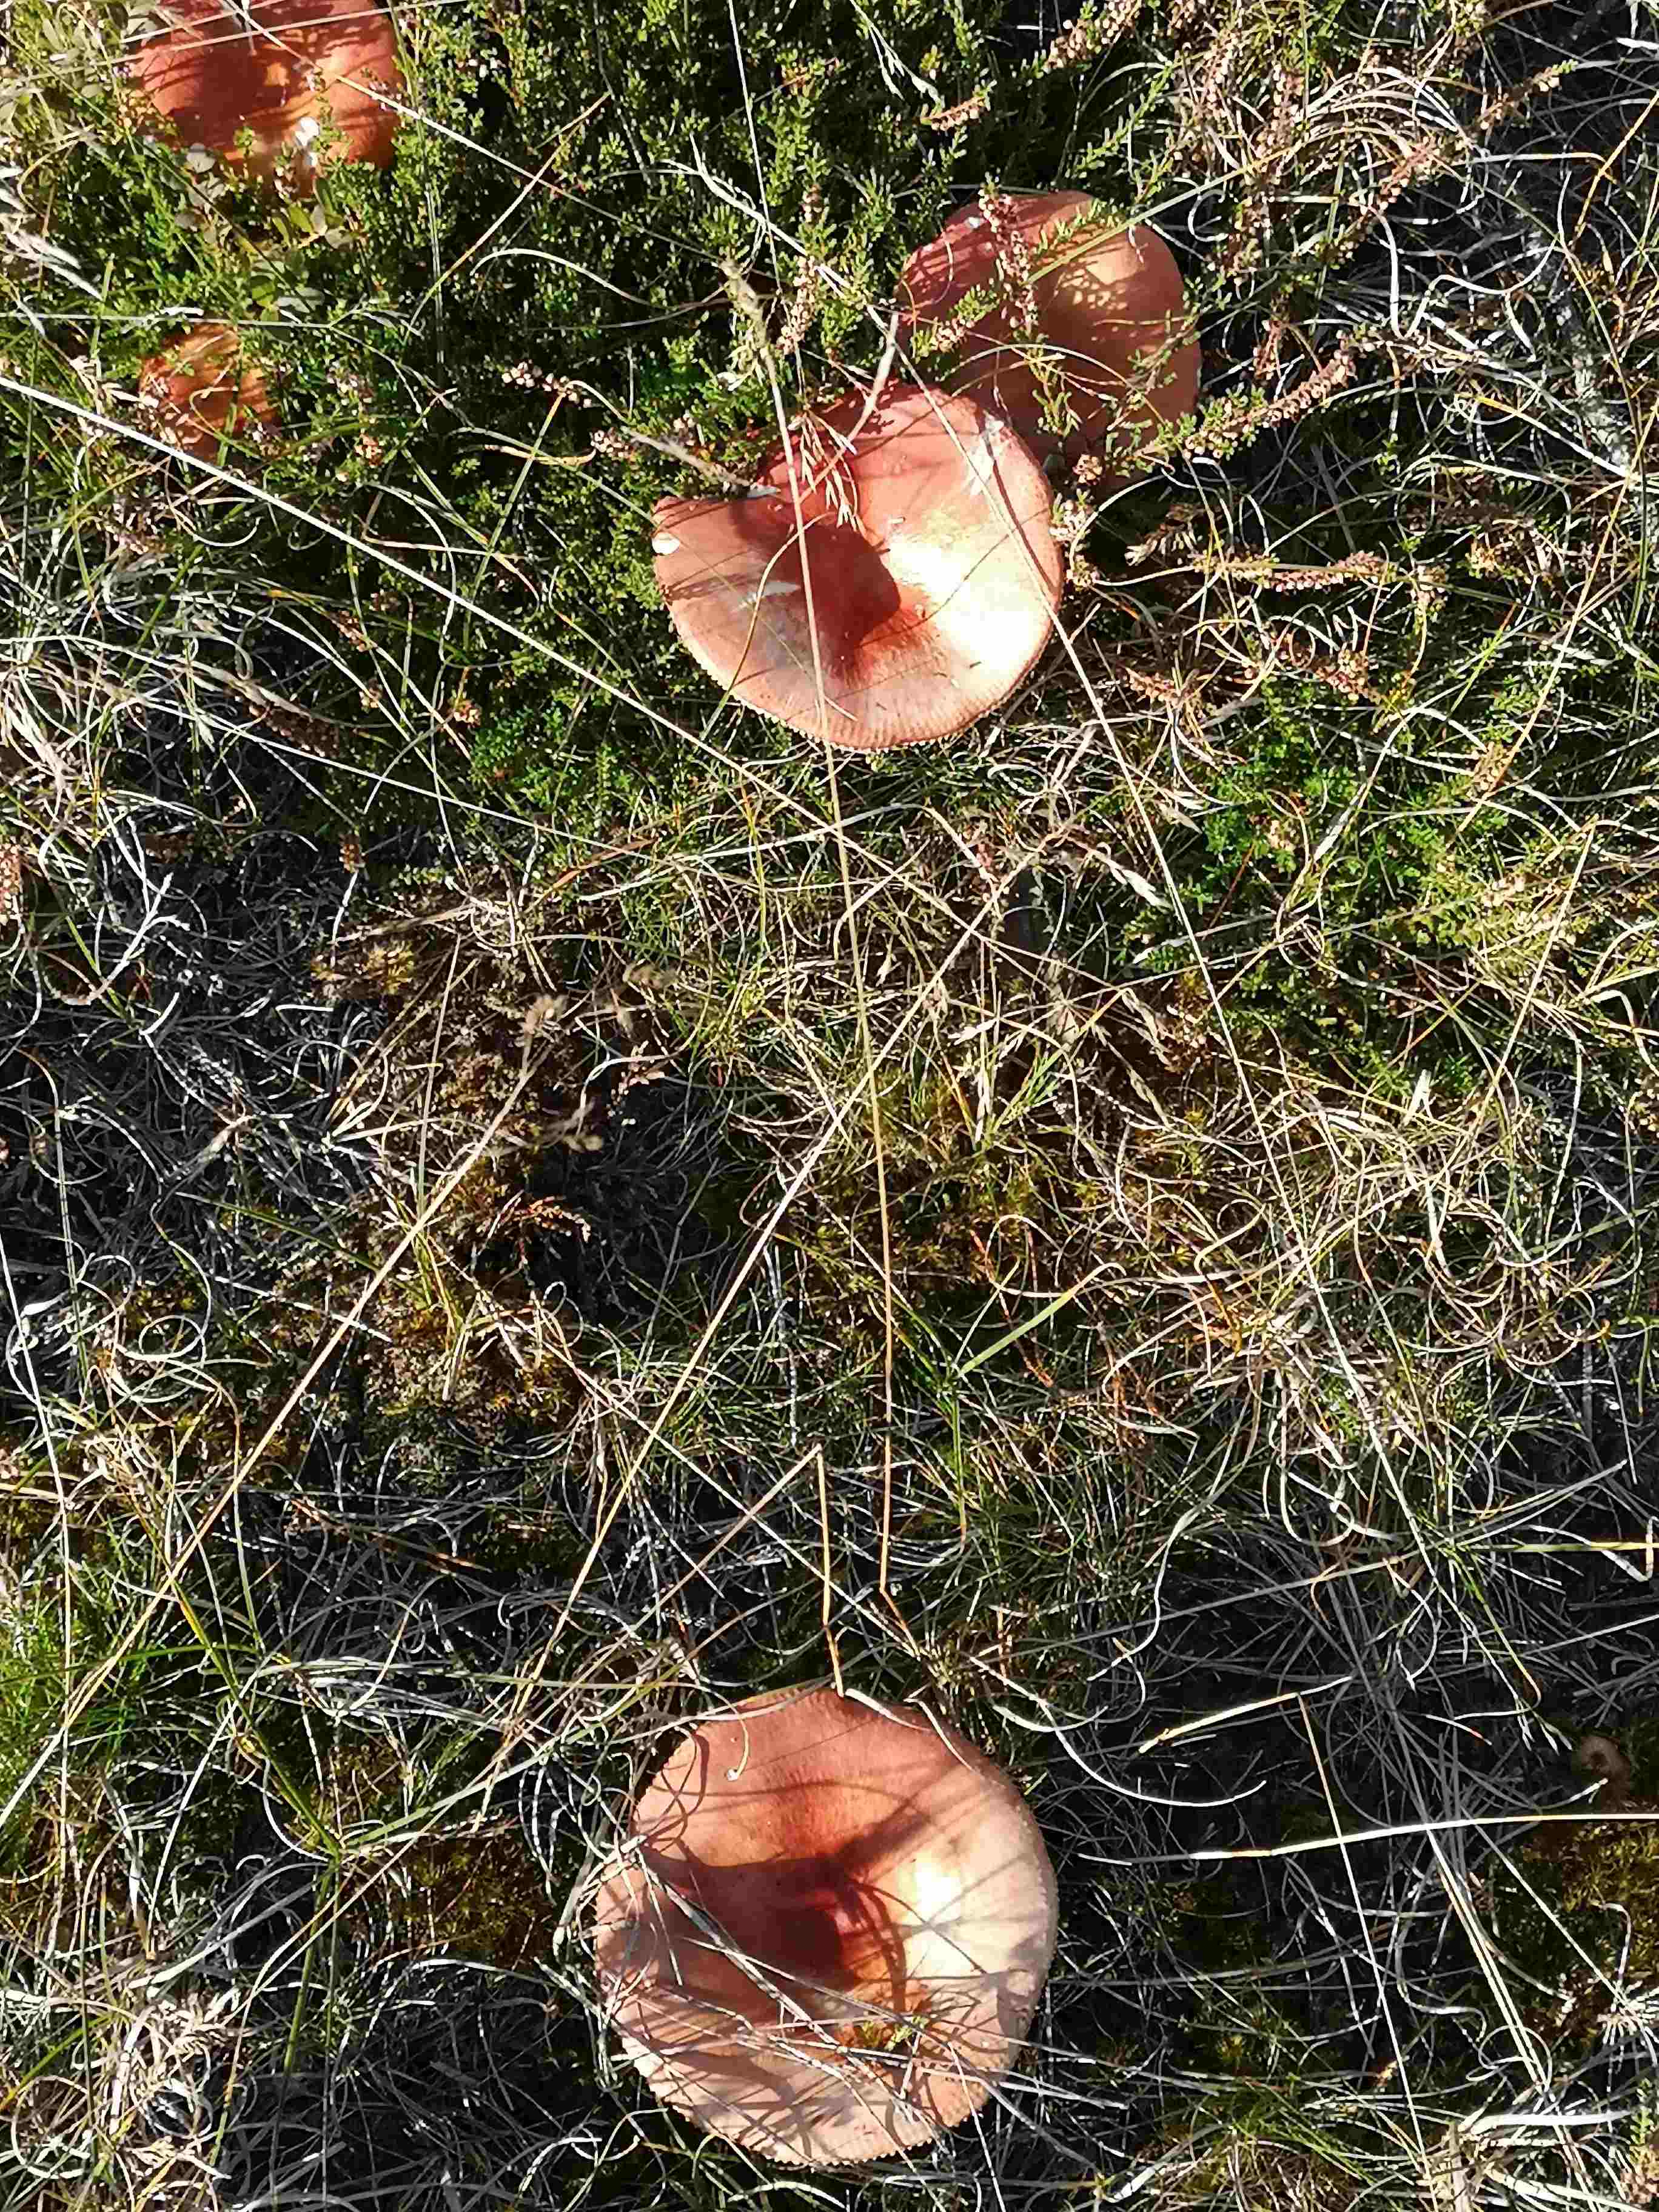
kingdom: Fungi
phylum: Basidiomycota
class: Agaricomycetes
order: Russulales
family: Russulaceae
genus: Russula
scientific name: Russula paludosa
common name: prægtig skørhat
